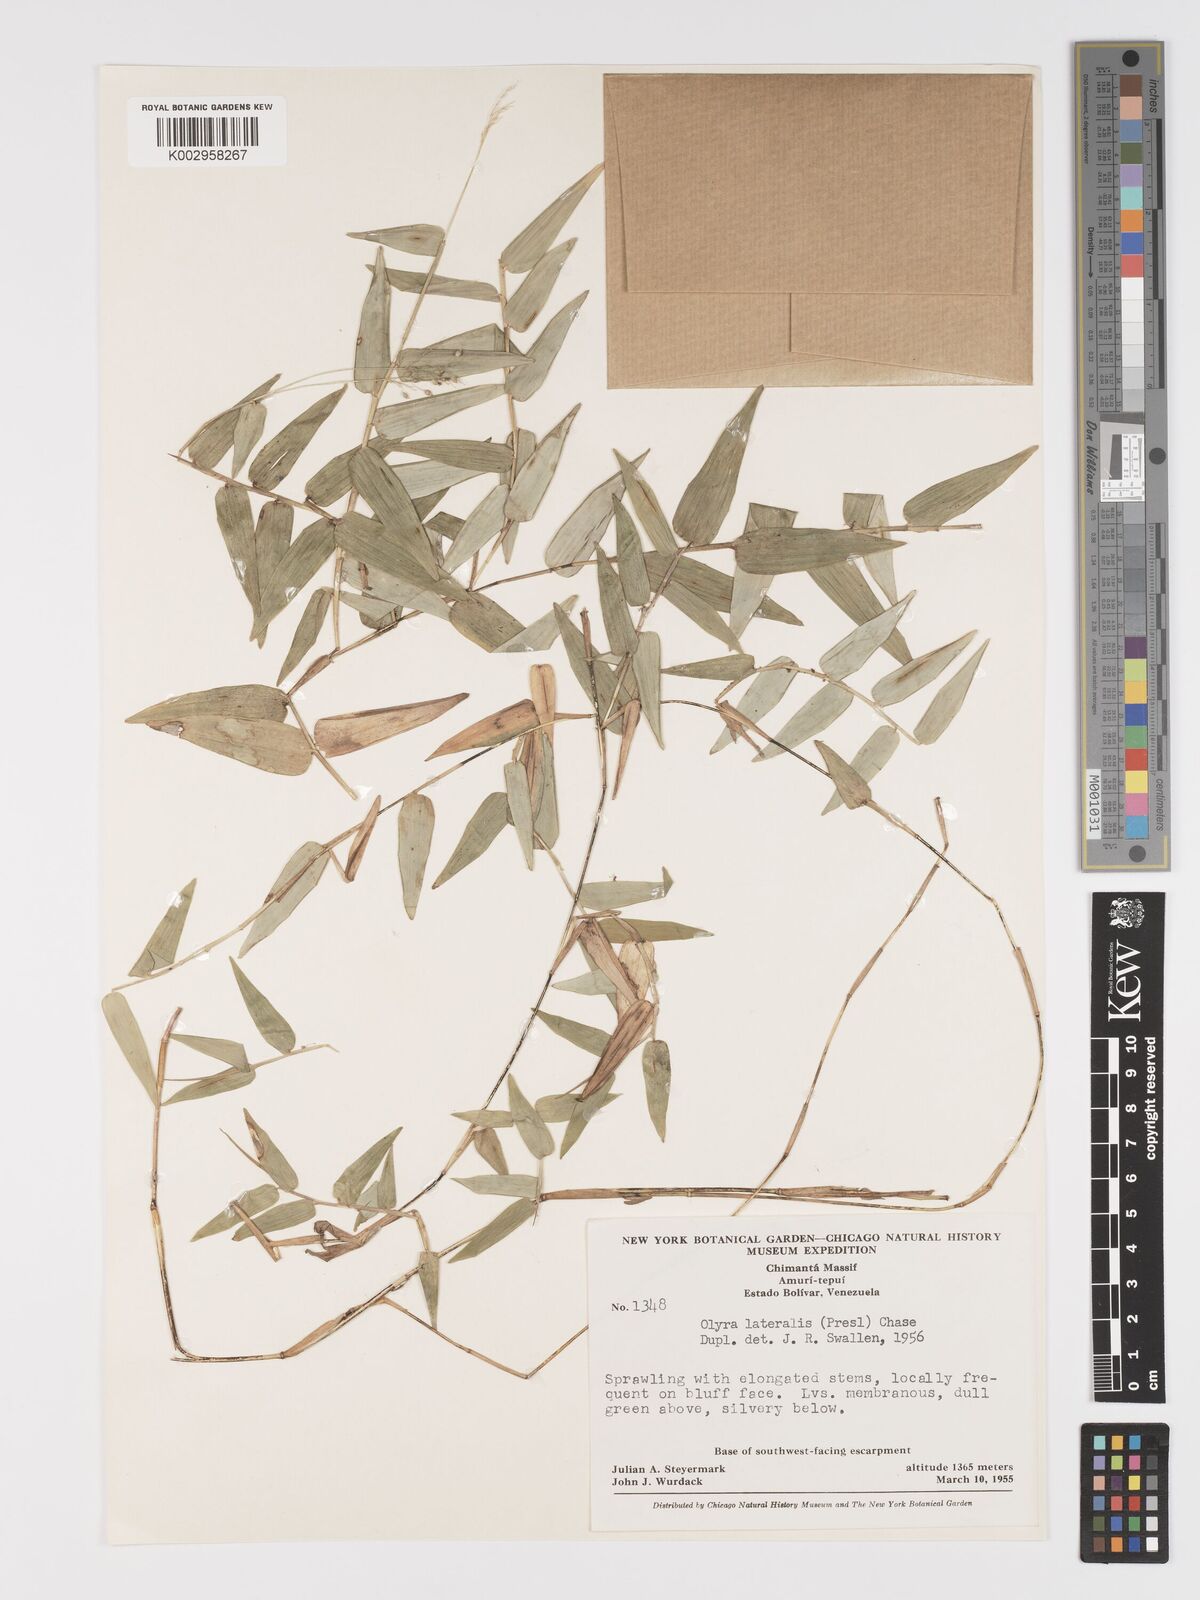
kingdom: Plantae
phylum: Tracheophyta
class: Liliopsida
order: Poales
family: Poaceae
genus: Parodiolyra
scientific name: Parodiolyra lateralis
